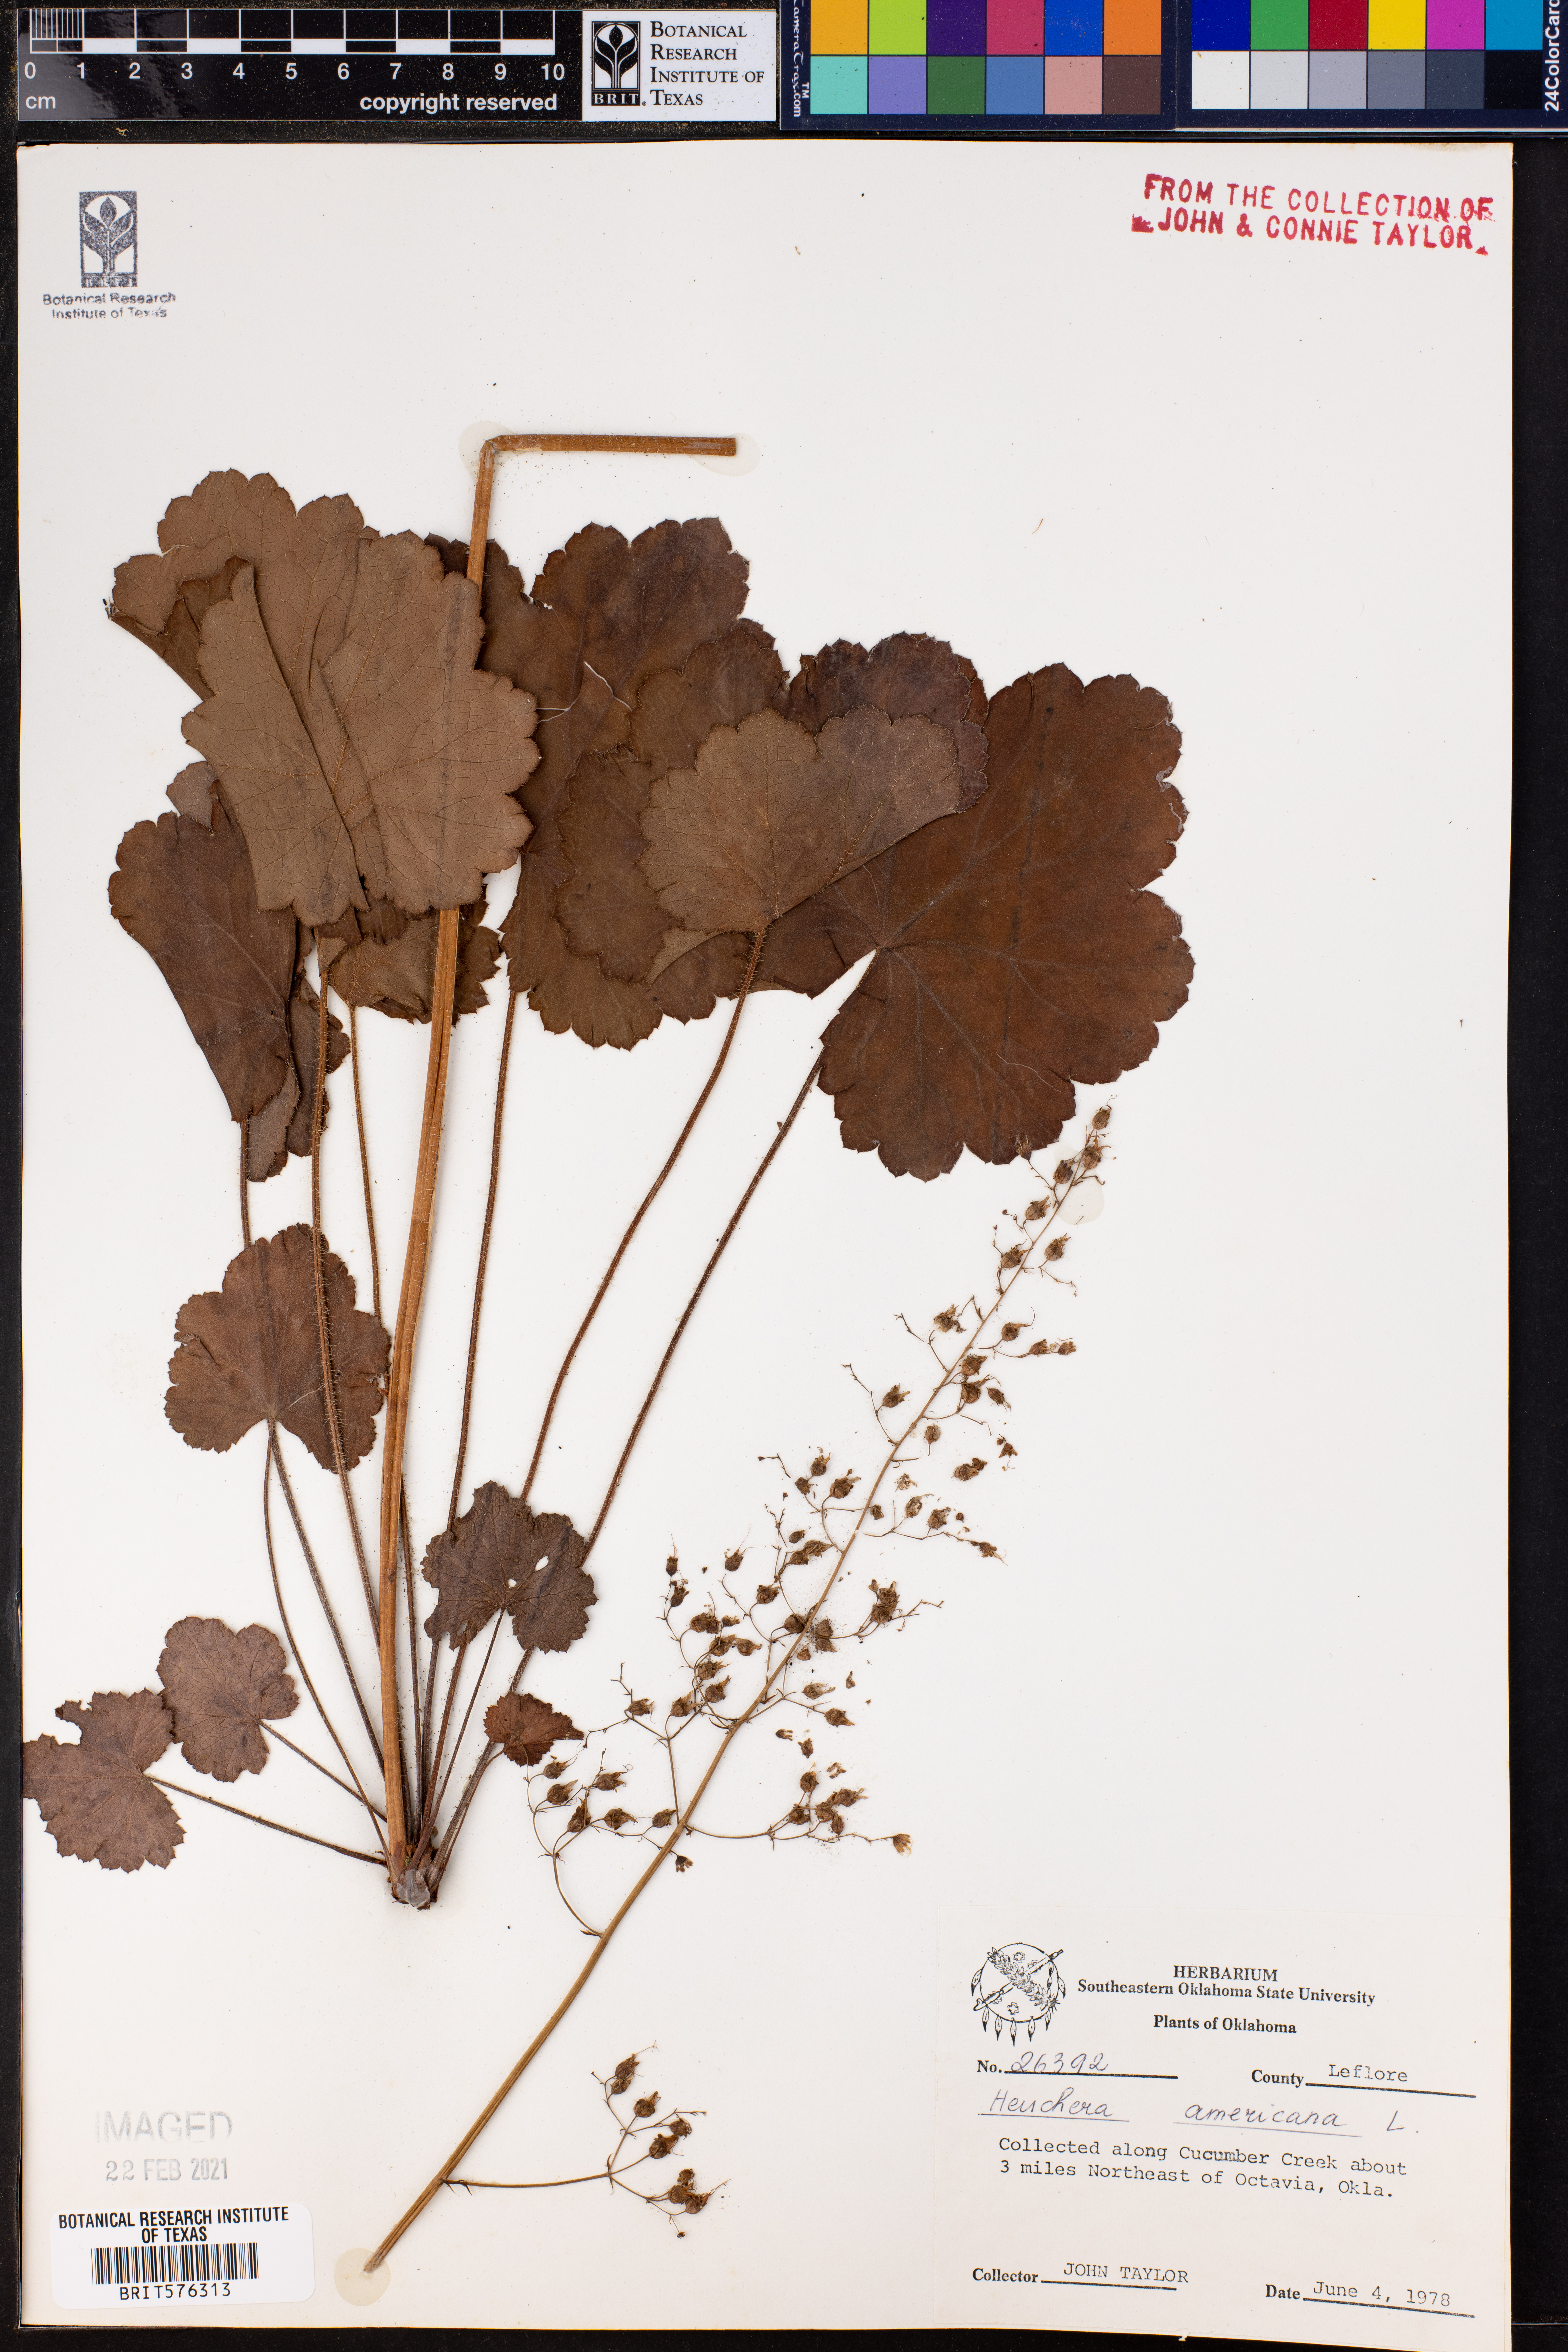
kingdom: Plantae
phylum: Tracheophyta
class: Magnoliopsida
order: Saxifragales
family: Saxifragaceae
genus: Heuchera
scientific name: Heuchera americana
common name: Alumroot
